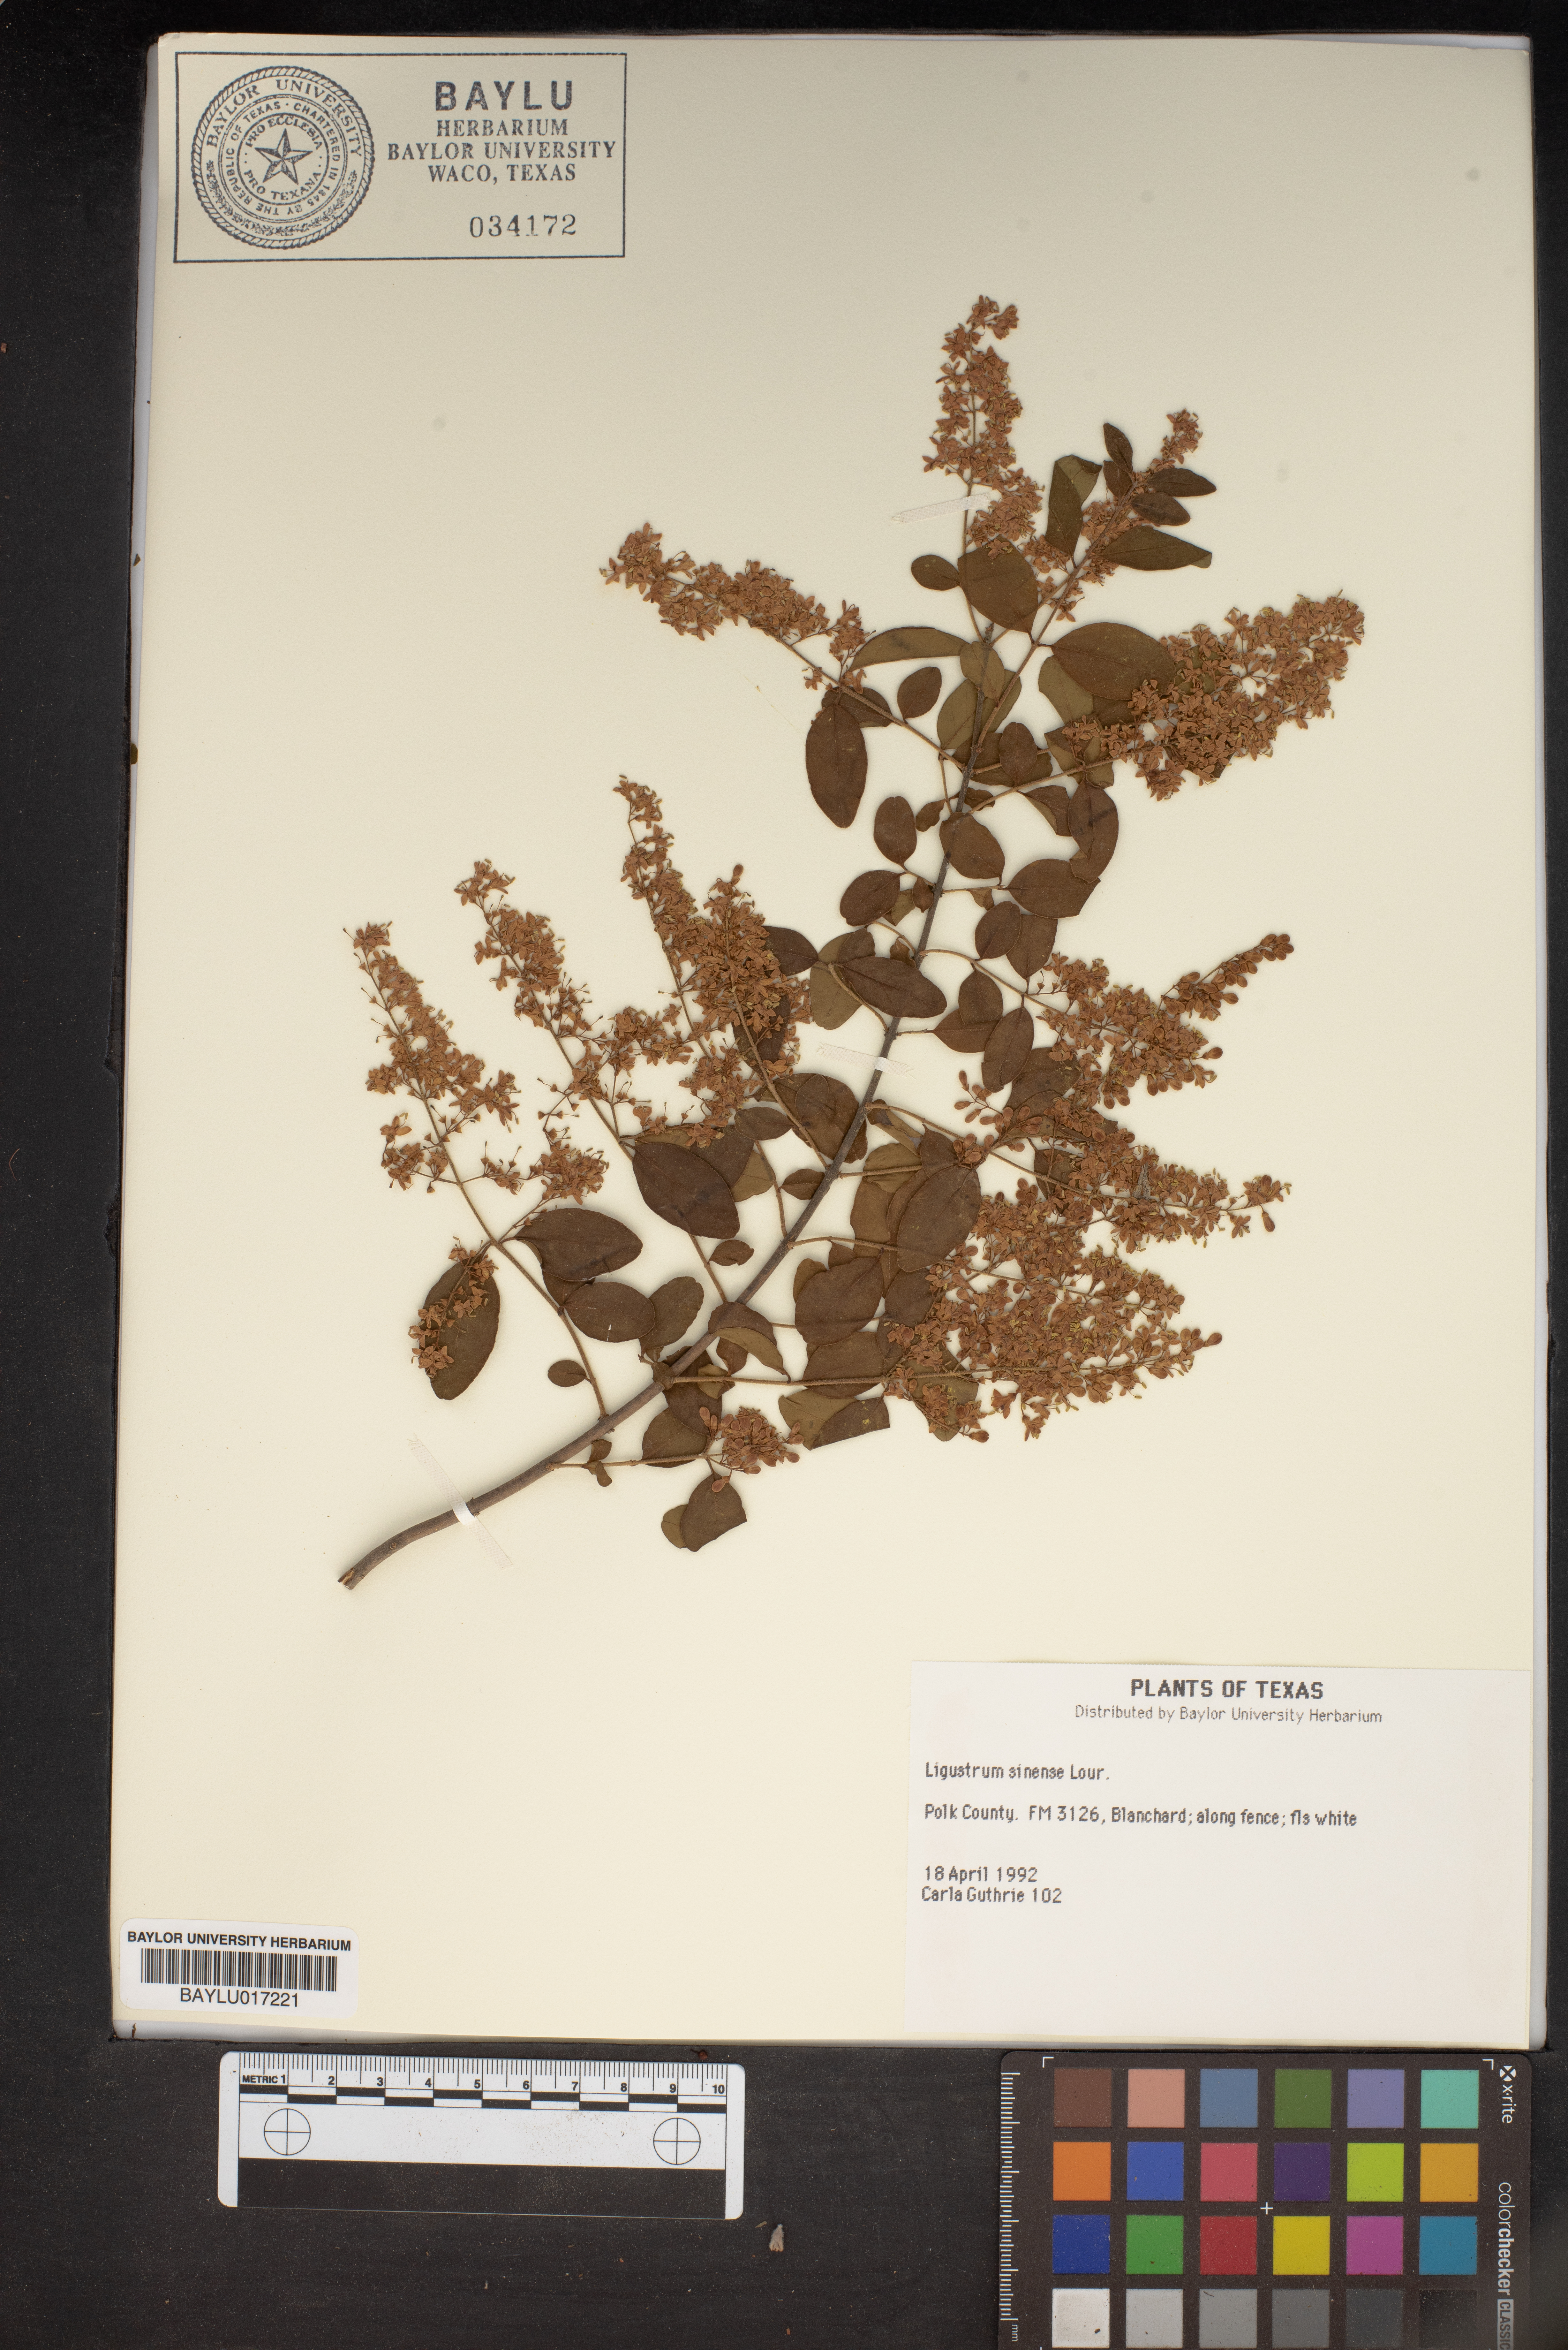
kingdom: Plantae
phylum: Tracheophyta
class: Magnoliopsida
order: Lamiales
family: Oleaceae
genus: Ligustrum
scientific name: Ligustrum sinense
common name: Chinese privet
